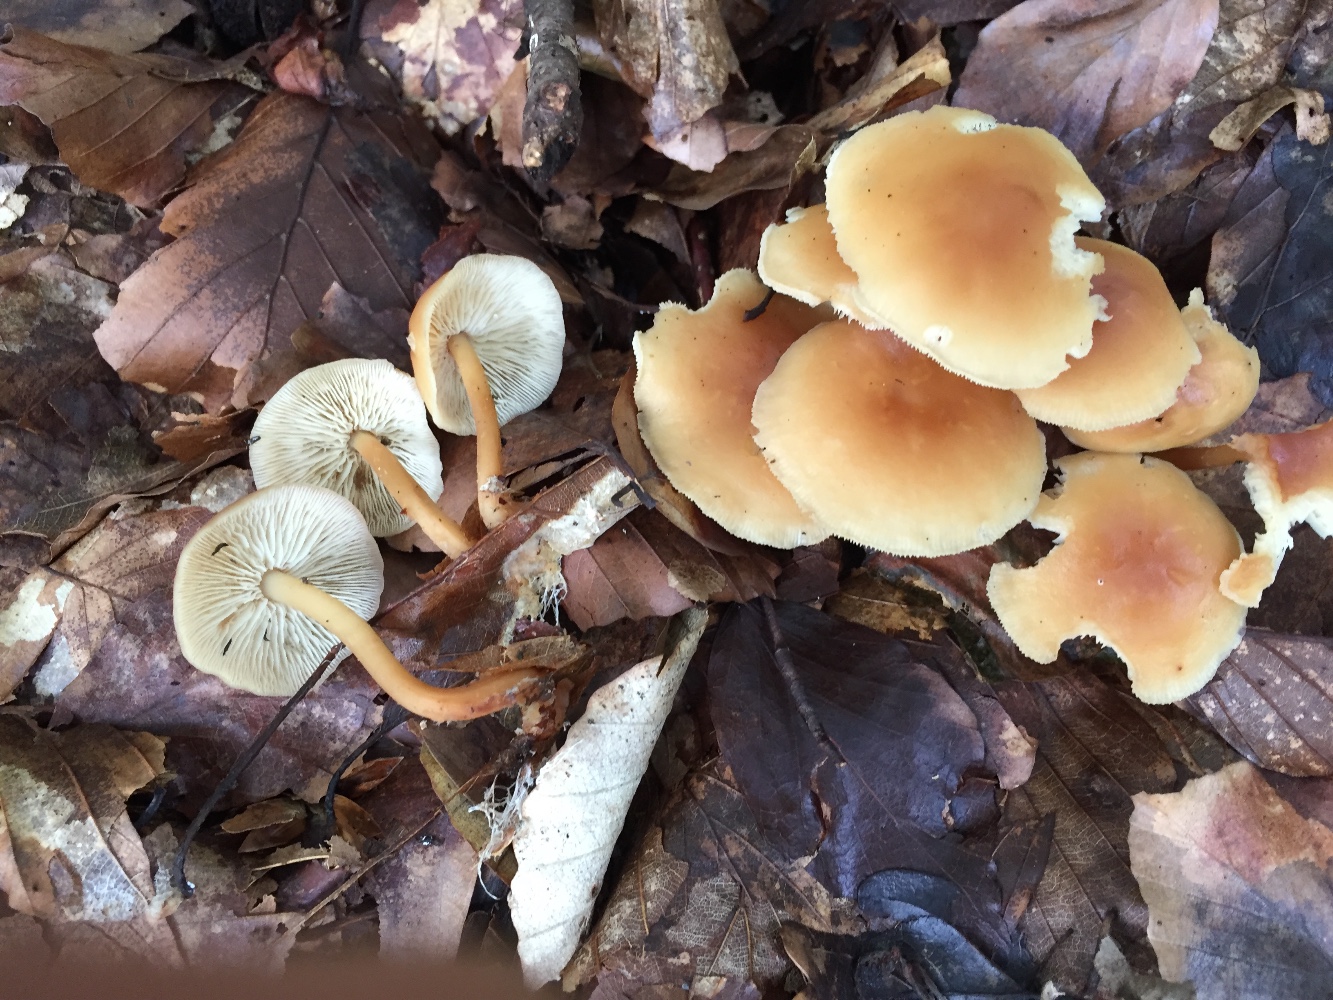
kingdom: Fungi
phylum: Basidiomycota
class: Agaricomycetes
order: Agaricales
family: Omphalotaceae
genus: Gymnopus
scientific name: Gymnopus dryophilus
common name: løv-fladhat
